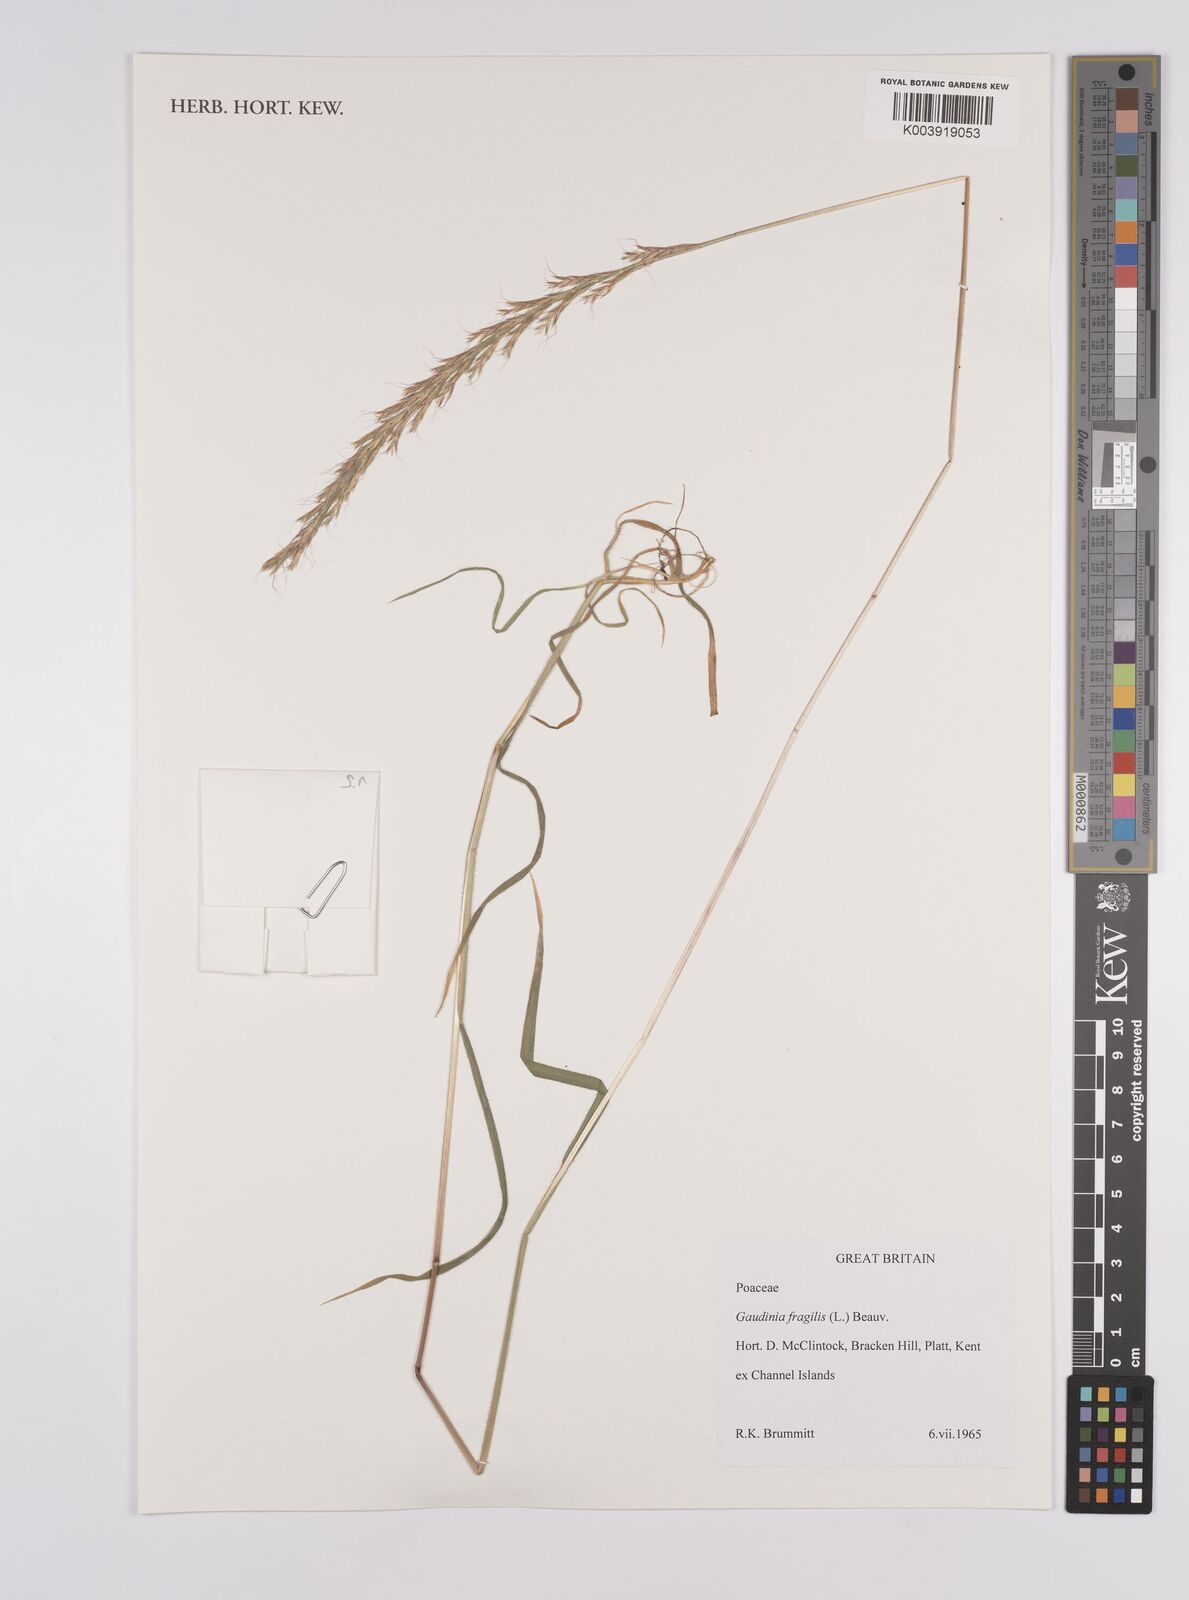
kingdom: Plantae
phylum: Tracheophyta
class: Liliopsida
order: Poales
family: Poaceae
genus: Gaudinia
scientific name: Gaudinia fragilis
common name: French oat-grass
